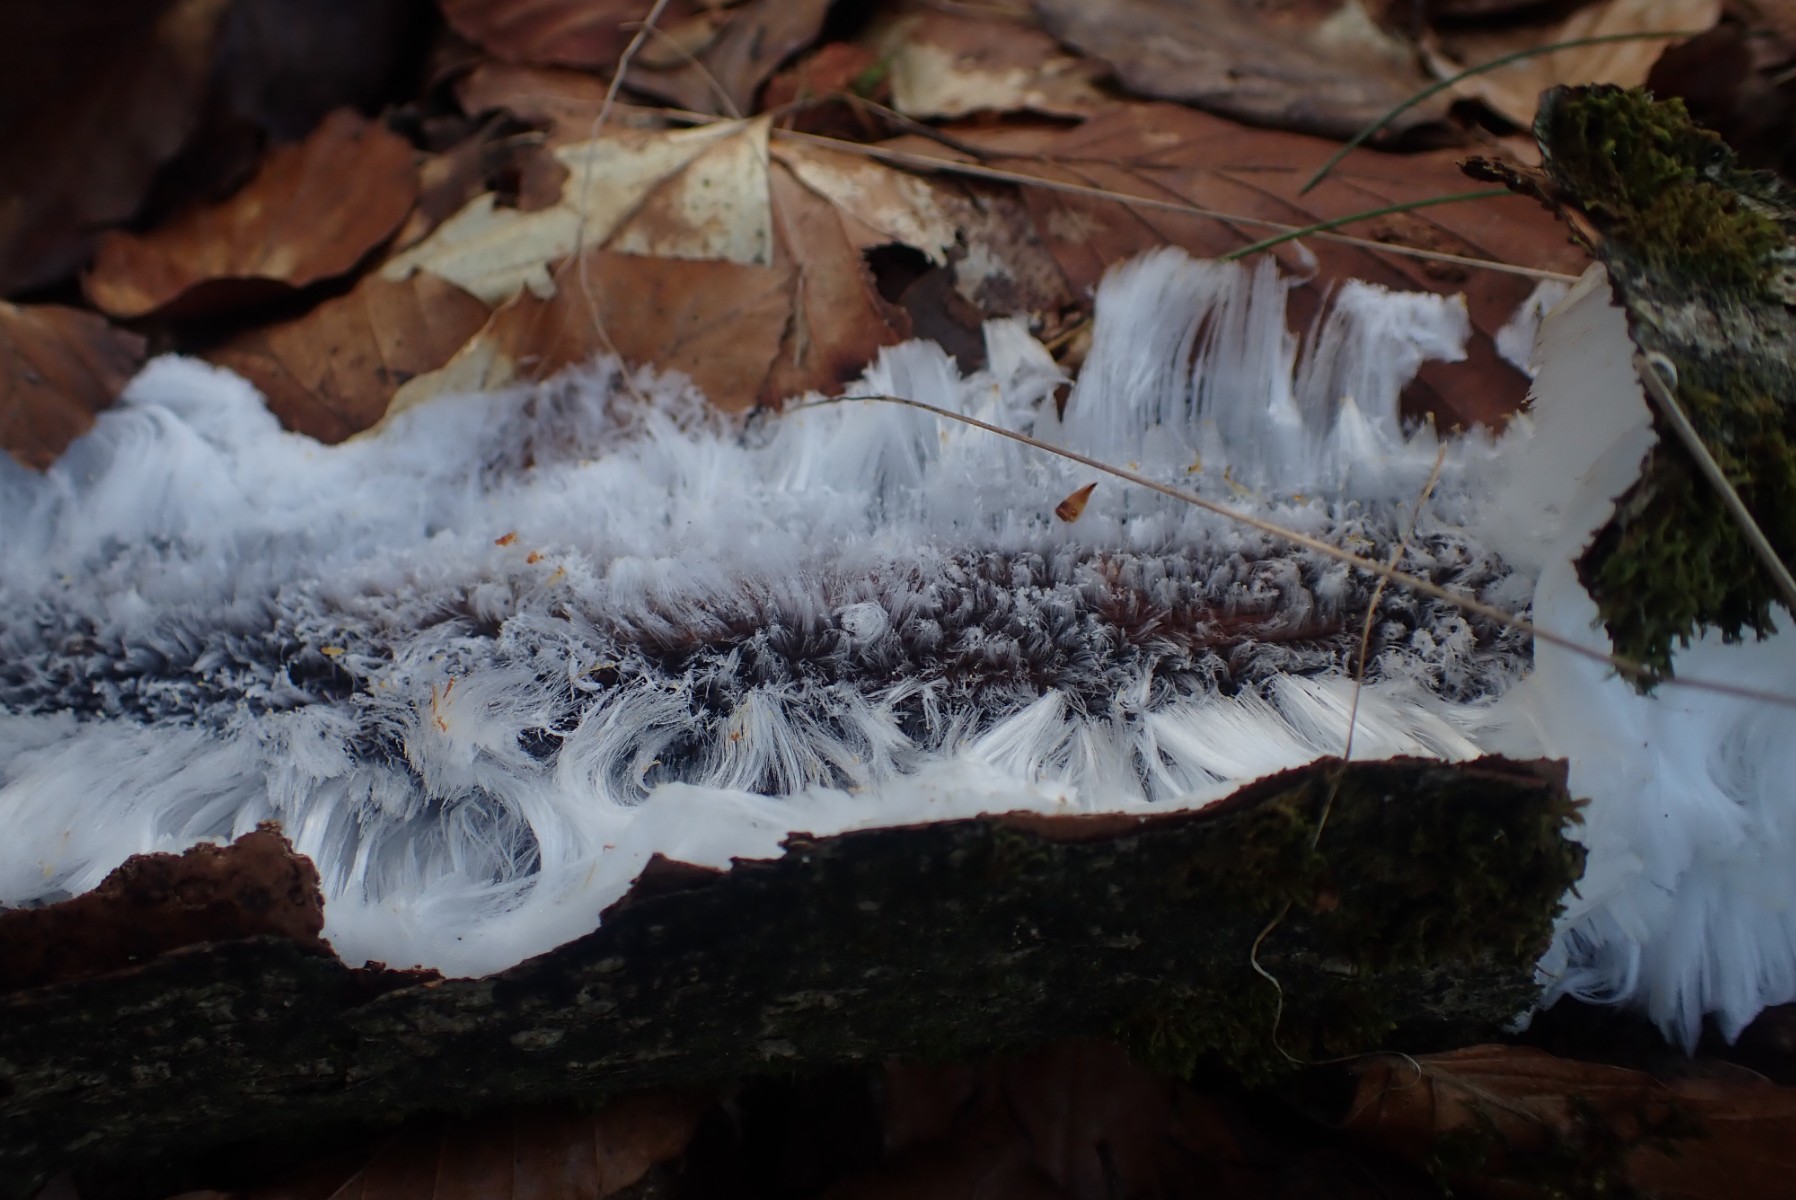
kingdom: Fungi
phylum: Basidiomycota
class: Tremellomycetes
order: Tremellales
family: Exidiaceae
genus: Exidiopsis
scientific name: Exidiopsis effusa
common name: smuk bævrehinde
